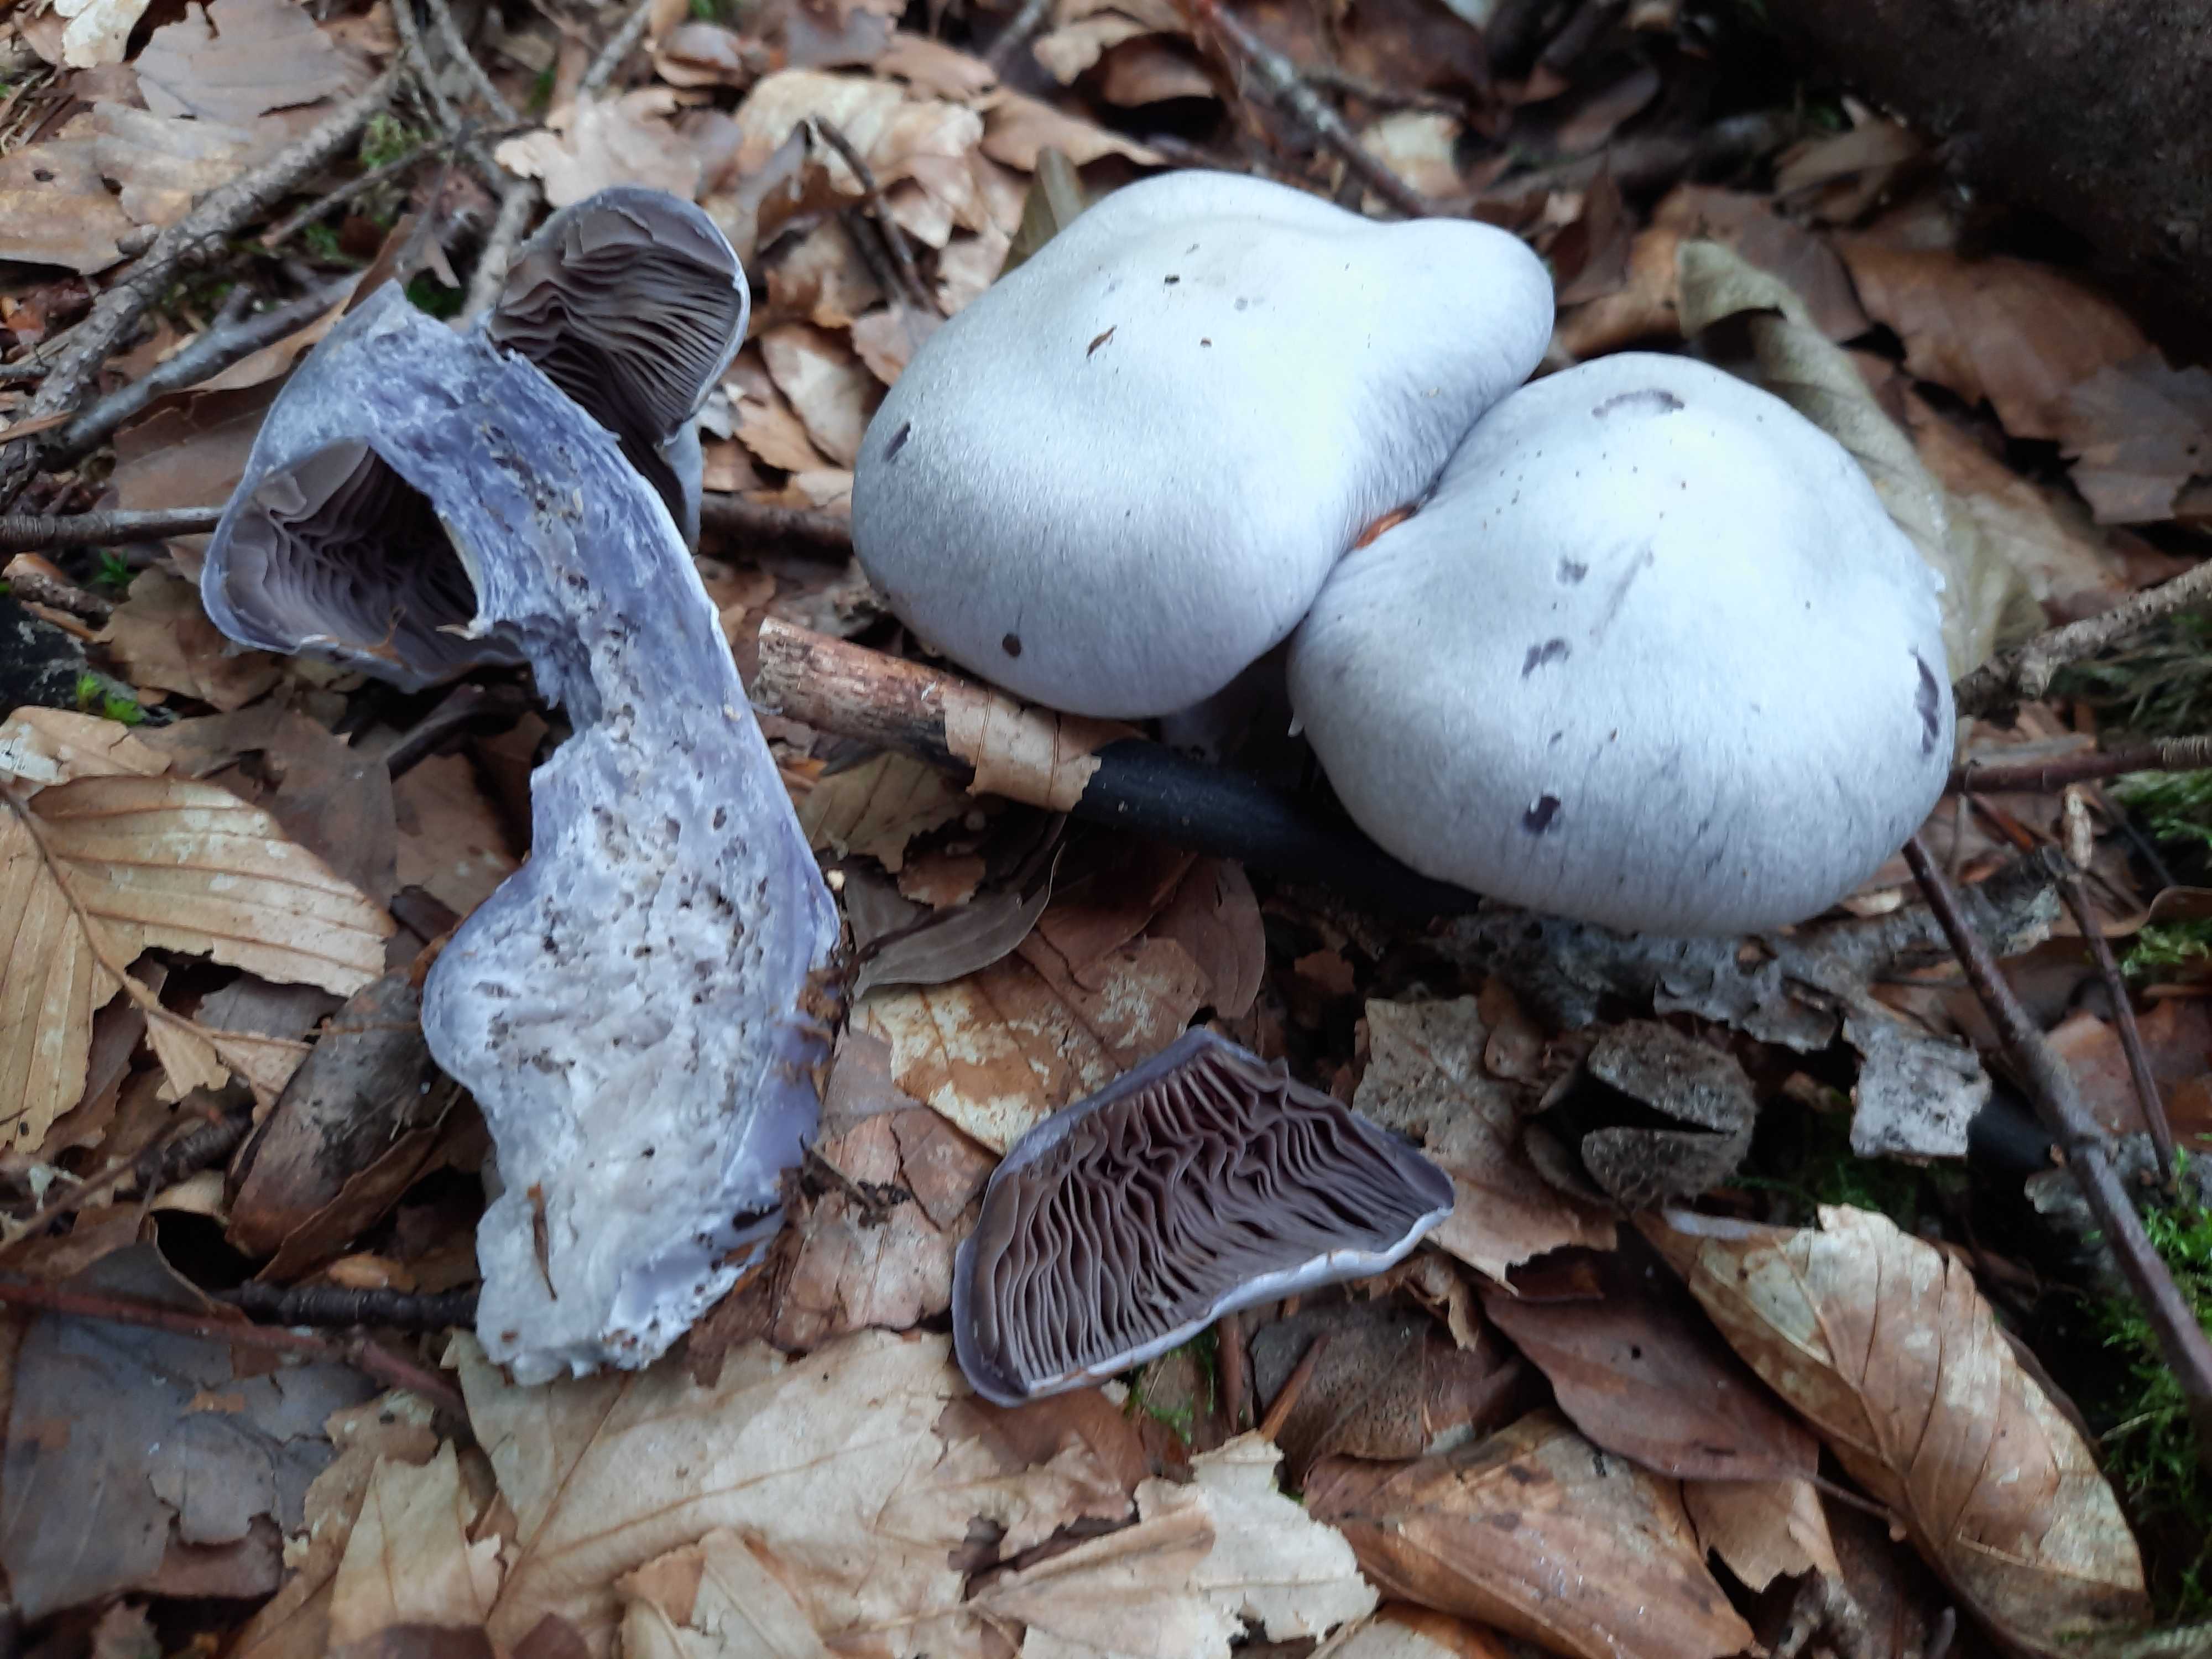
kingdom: Fungi
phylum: Basidiomycota
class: Agaricomycetes
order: Agaricales
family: Cortinariaceae
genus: Cortinarius
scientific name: Cortinarius alboviolaceus
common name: lysviolet slørhat
